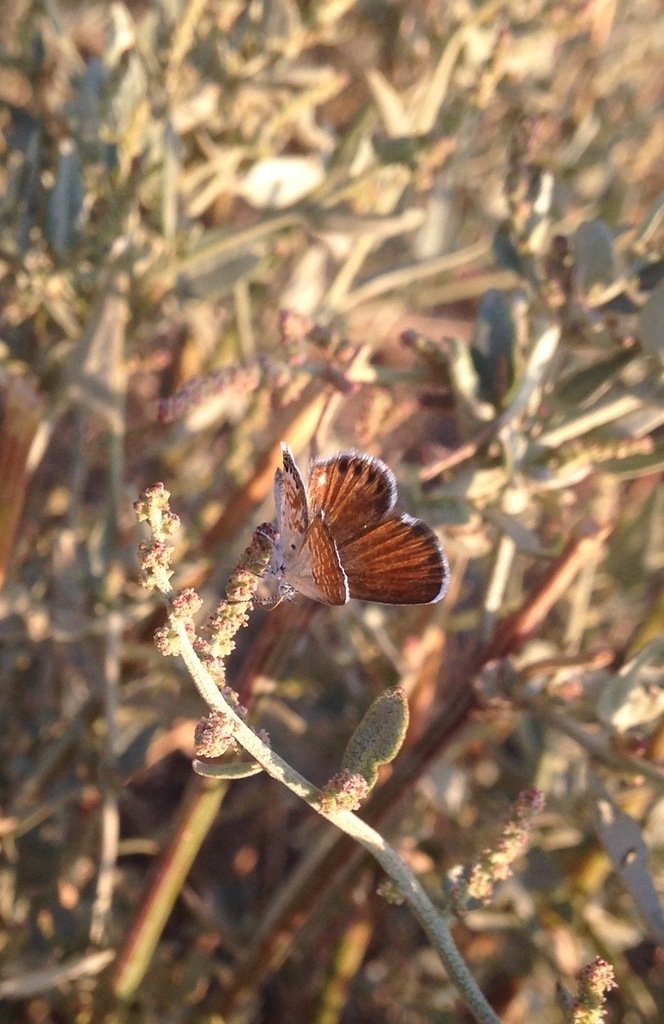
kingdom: Animalia
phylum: Arthropoda
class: Insecta
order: Lepidoptera
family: Lycaenidae
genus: Brephidium
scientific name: Brephidium exilis
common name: Western Pygmy-Blue
